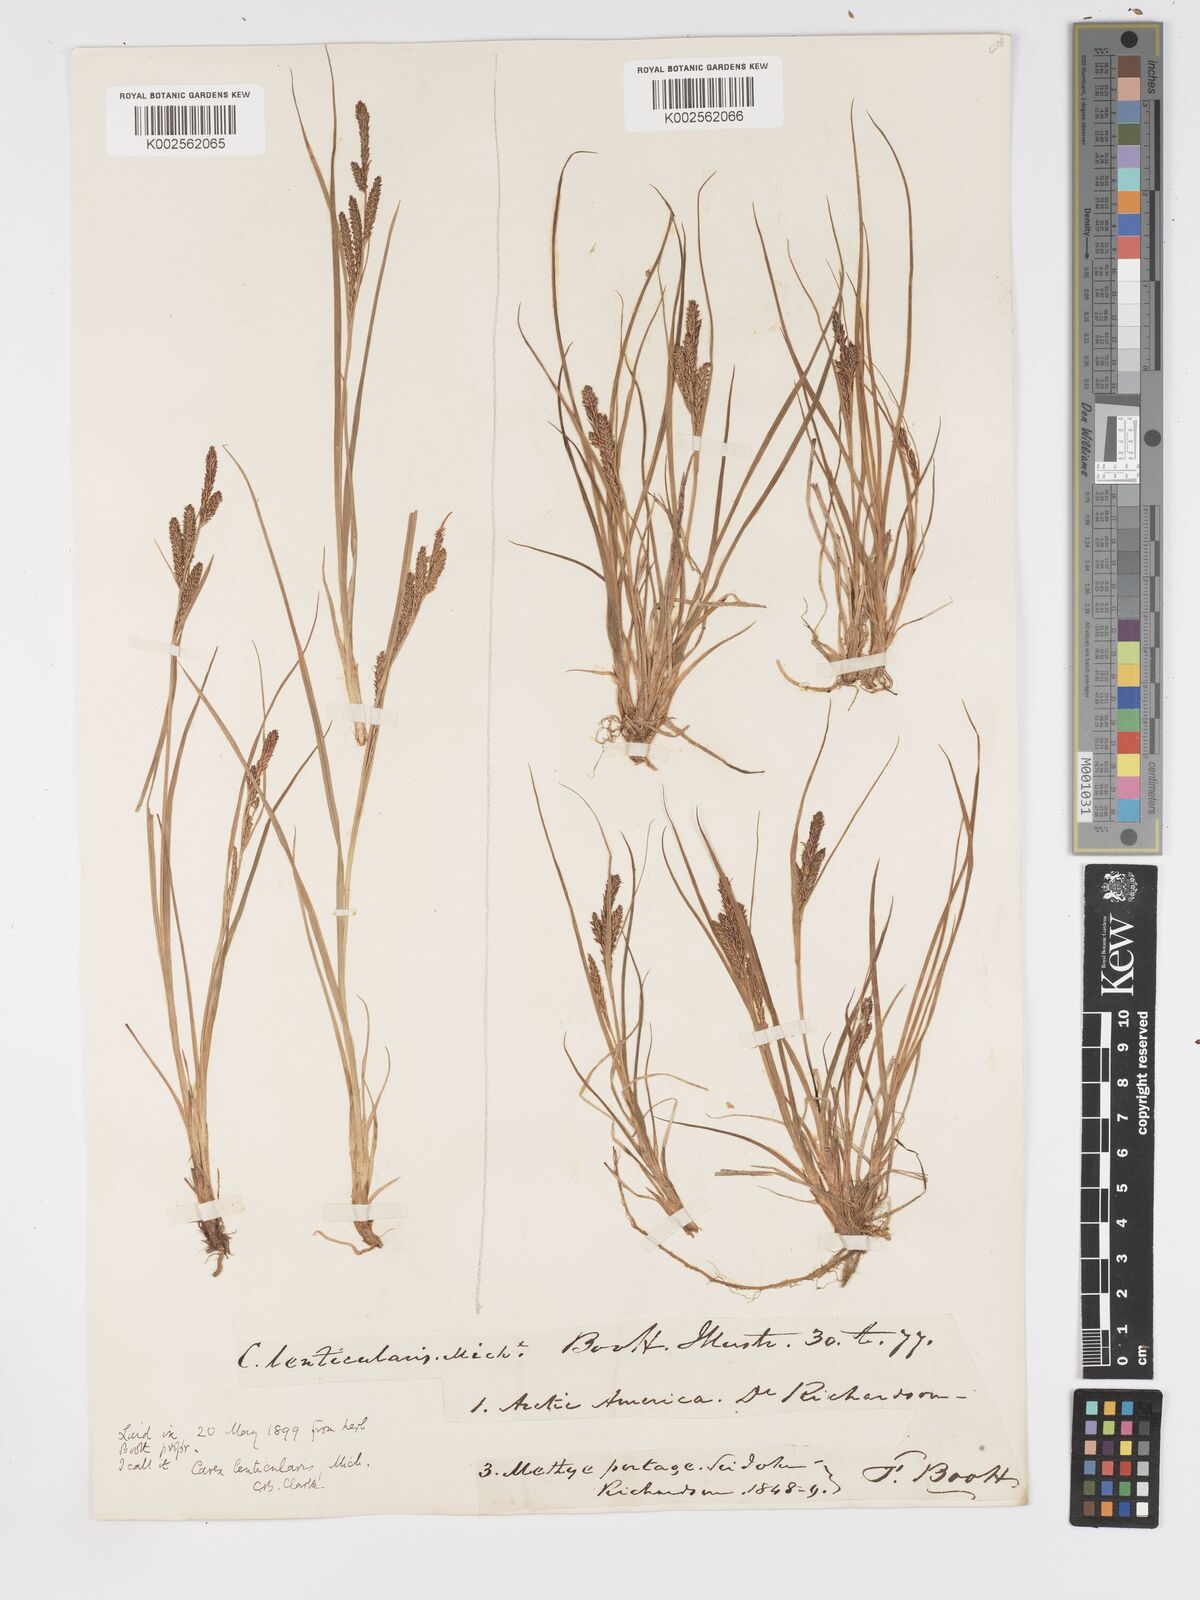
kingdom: Plantae
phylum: Tracheophyta
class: Liliopsida
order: Poales
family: Cyperaceae
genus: Carex
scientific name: Carex lenticularis
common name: Lakeshore sedge
